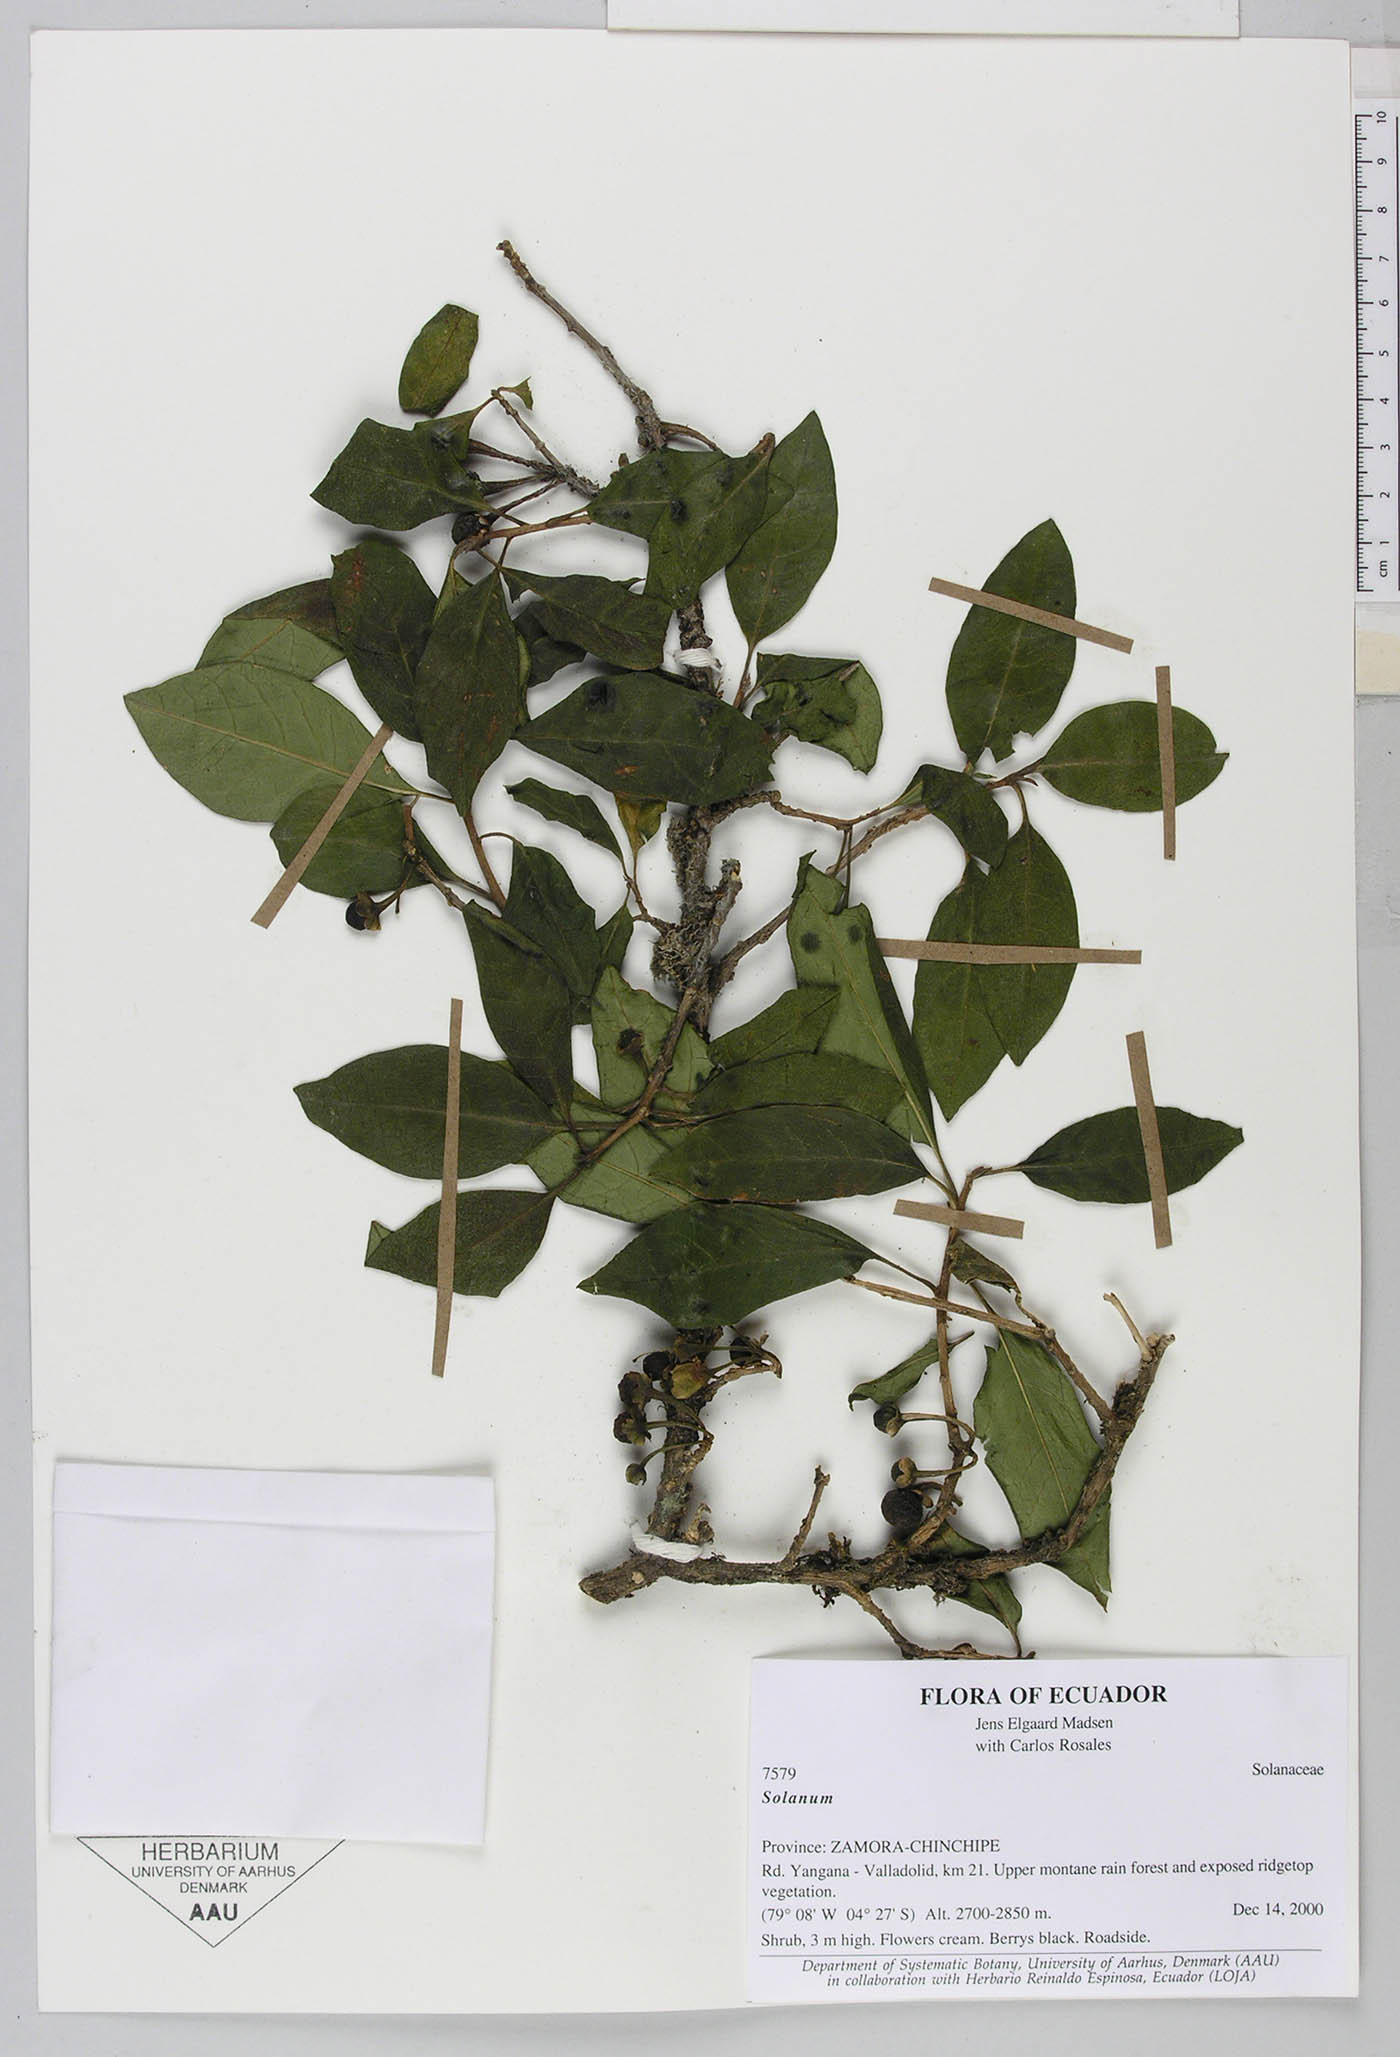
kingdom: Plantae
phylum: Tracheophyta
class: Magnoliopsida
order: Solanales
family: Solanaceae
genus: Saracha
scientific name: Saracha punctata
